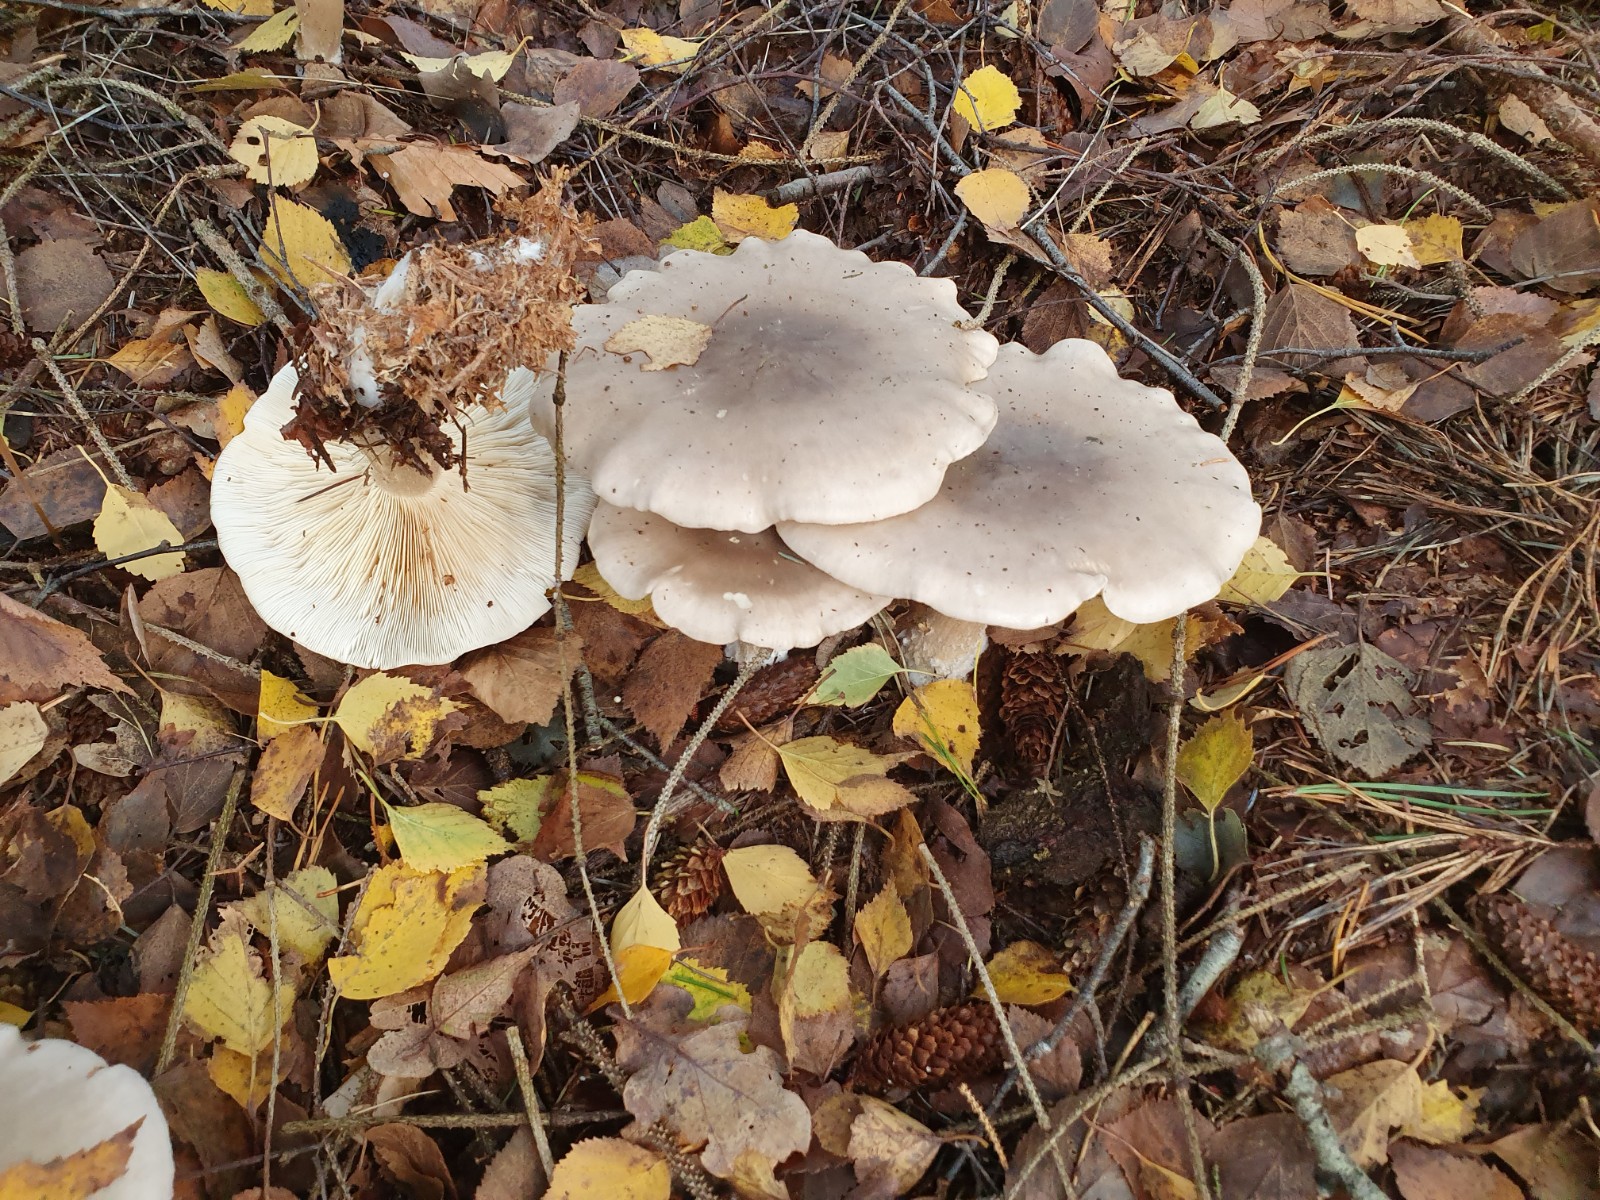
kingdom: Fungi
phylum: Basidiomycota
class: Agaricomycetes
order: Agaricales
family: Tricholomataceae
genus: Clitocybe
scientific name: Clitocybe nebularis
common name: tåge-tragthat
